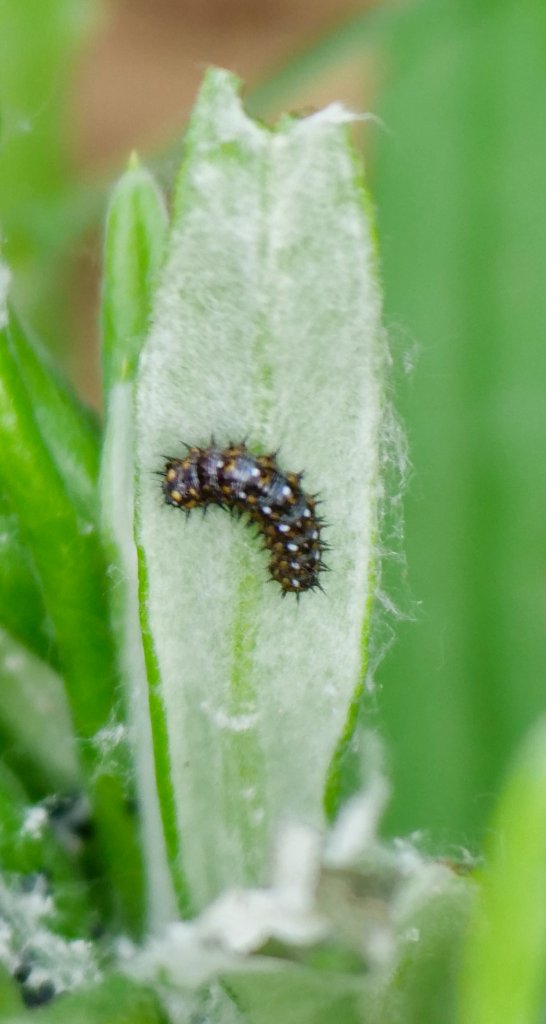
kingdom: Animalia
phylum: Arthropoda
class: Insecta
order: Lepidoptera
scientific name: Lepidoptera
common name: Butterflies
